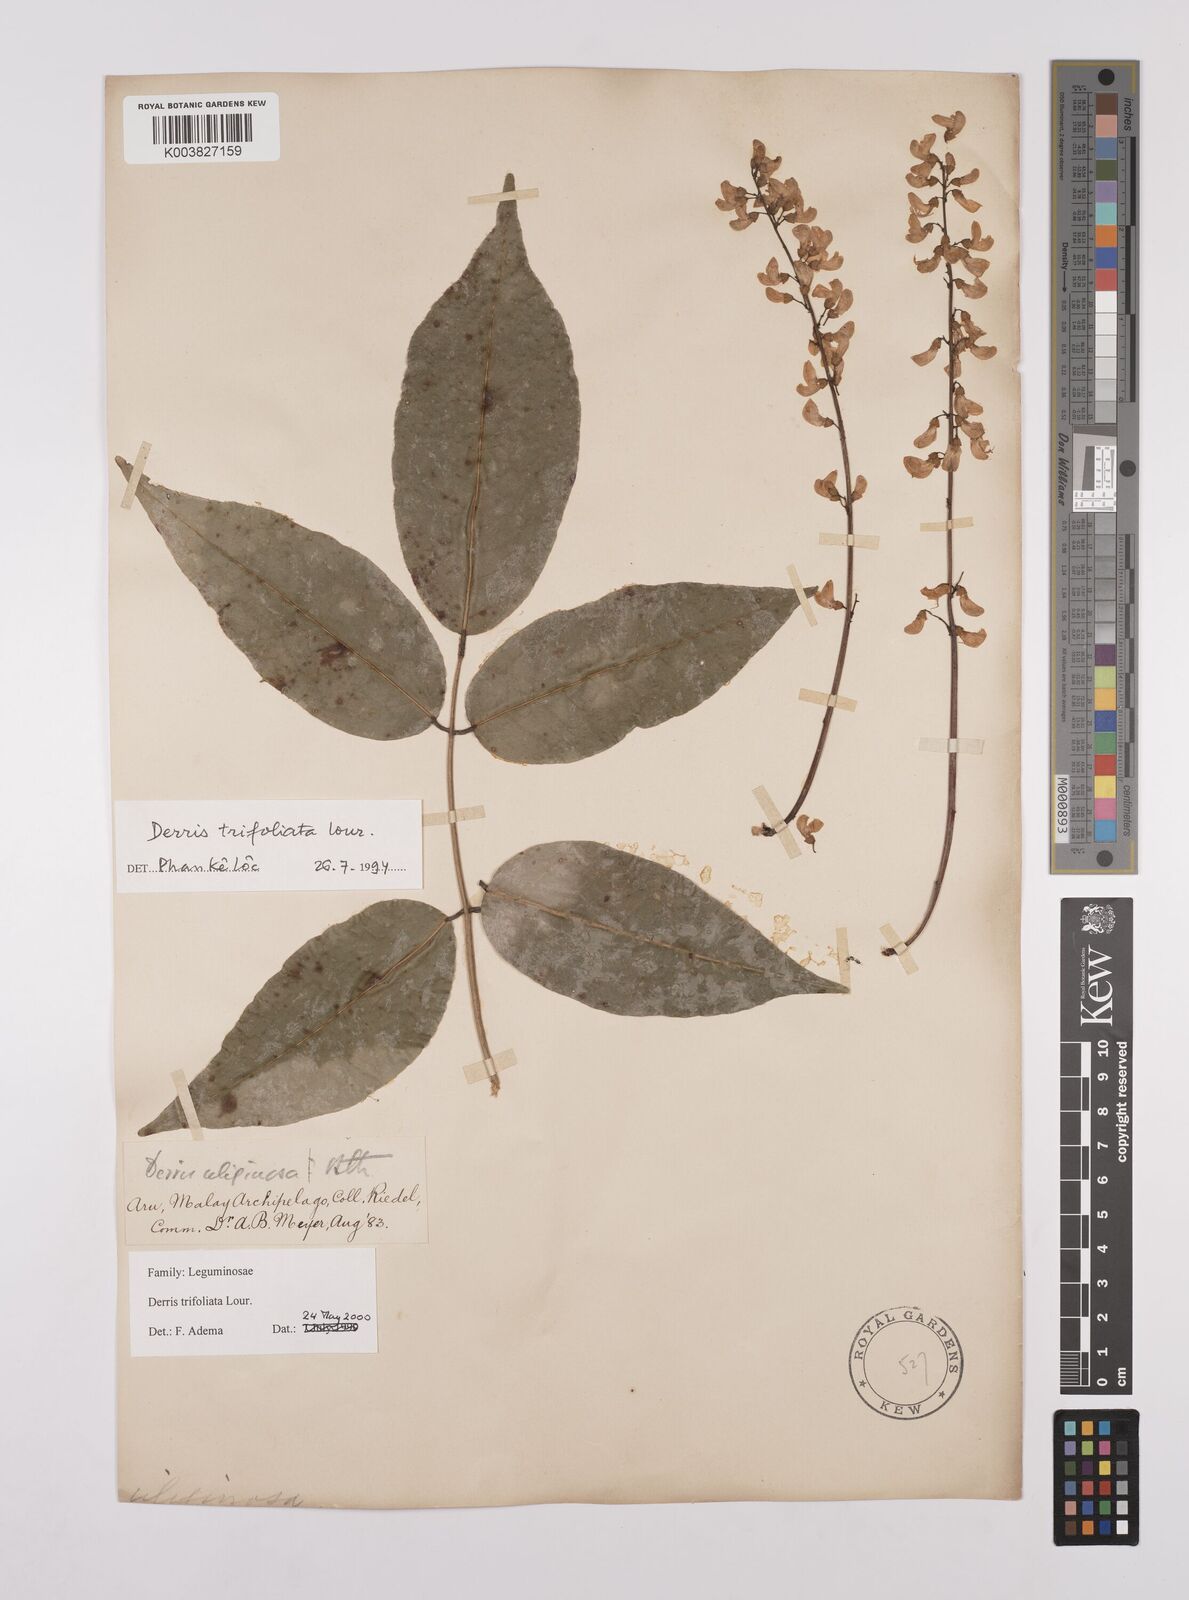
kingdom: Plantae
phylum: Tracheophyta
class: Magnoliopsida
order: Fabales
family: Fabaceae
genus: Derris
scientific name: Derris trifoliata
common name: Three-leaf derris
